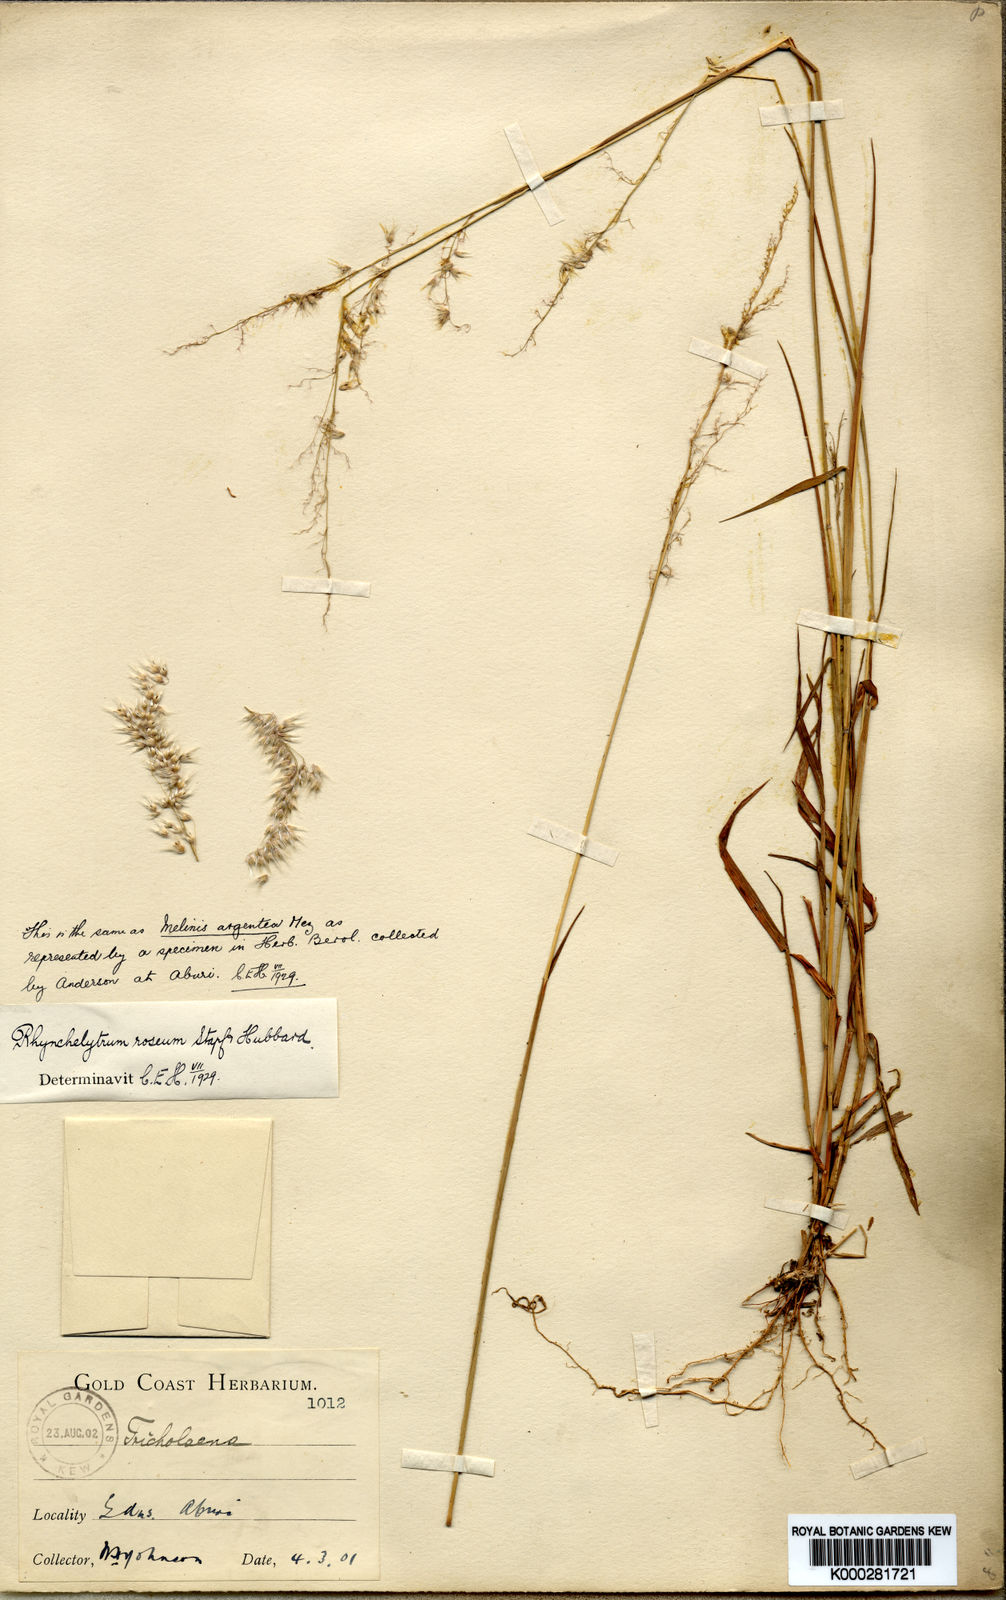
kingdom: Plantae
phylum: Tracheophyta
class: Liliopsida
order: Poales
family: Poaceae
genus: Melinis
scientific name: Melinis repens
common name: Rose natal grass
